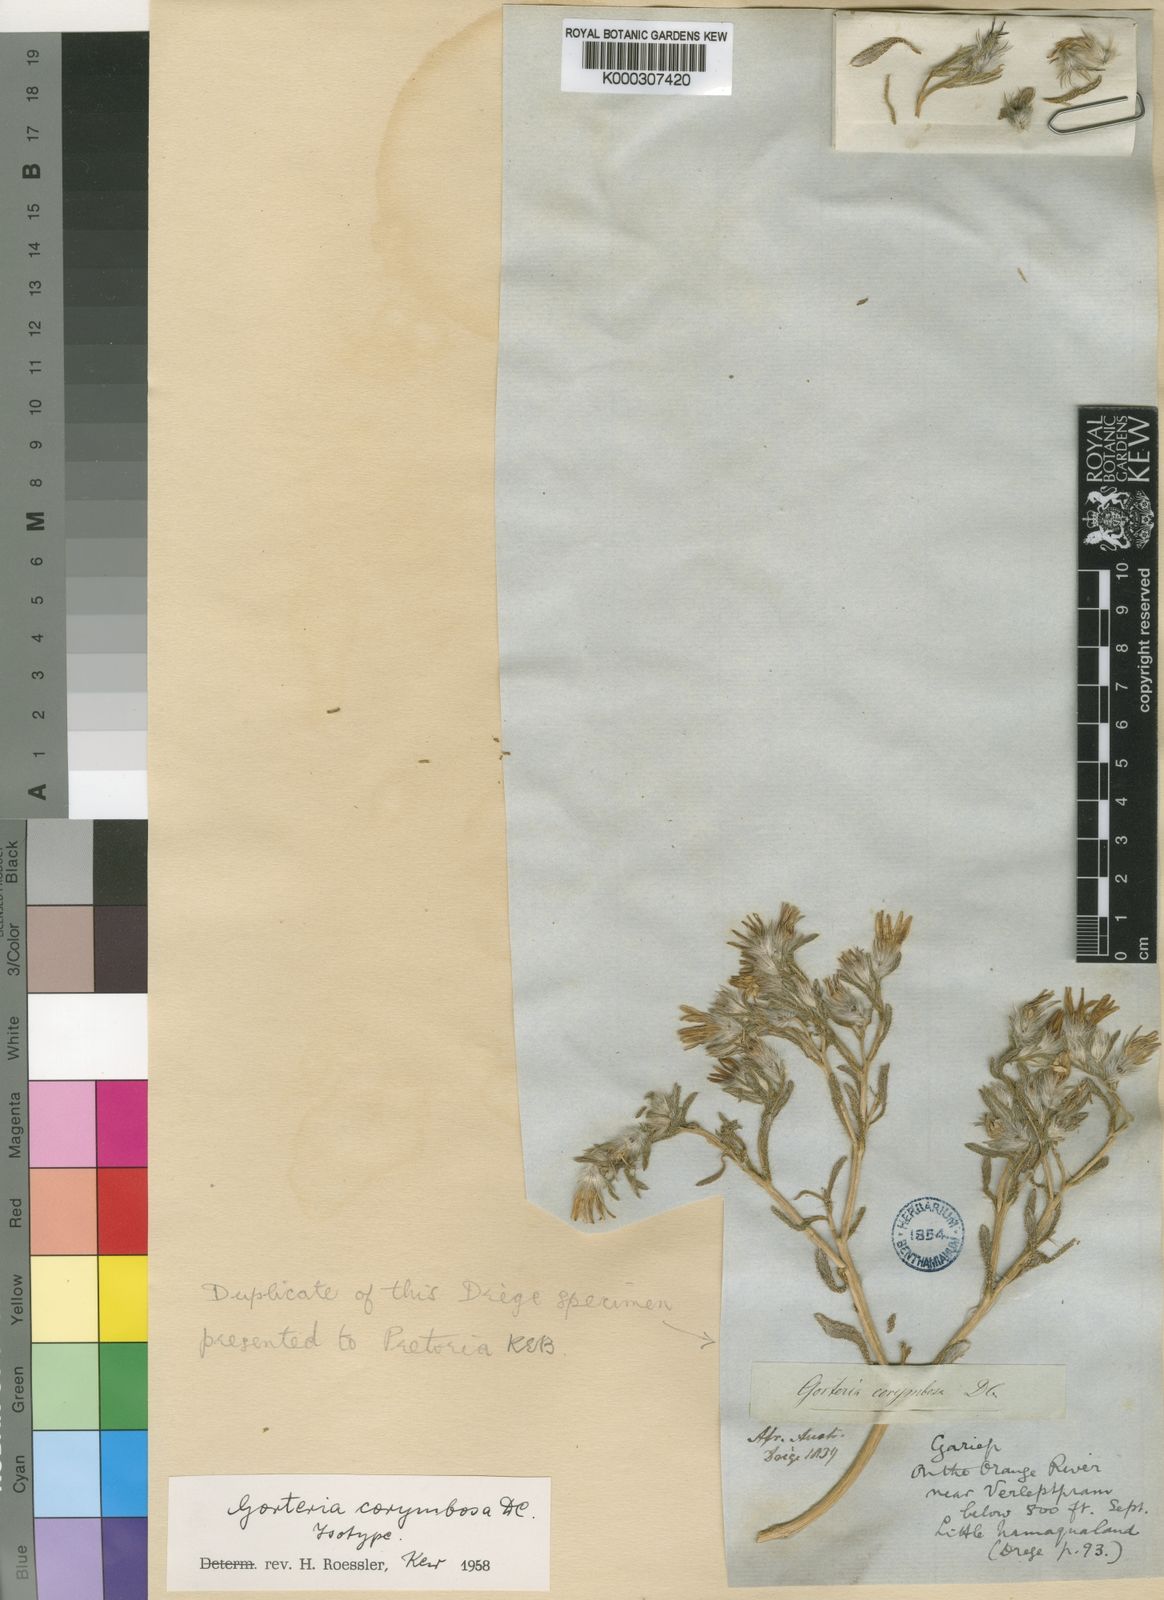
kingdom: Plantae
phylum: Tracheophyta
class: Magnoliopsida
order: Asterales
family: Asteraceae
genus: Gorteria
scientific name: Gorteria corymbosa
